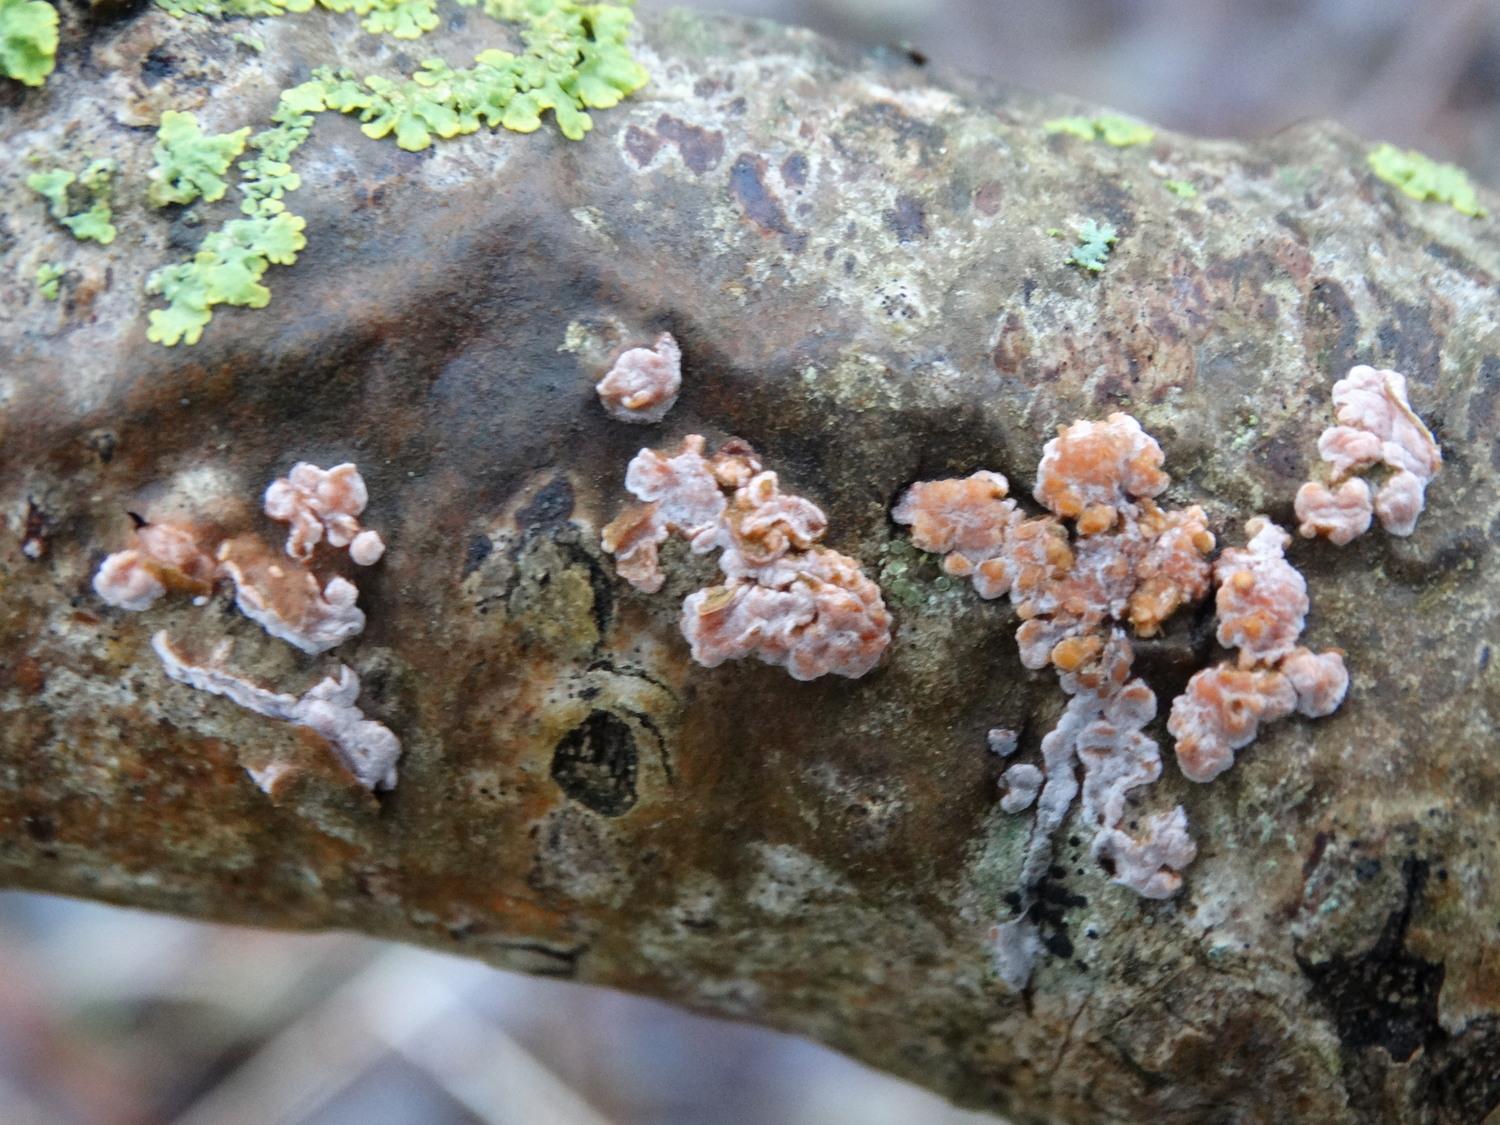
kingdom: Fungi
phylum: Basidiomycota
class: Agaricomycetes
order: Russulales
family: Peniophoraceae
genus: Peniophora
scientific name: Peniophora polygonia
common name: polygon-voksskind
